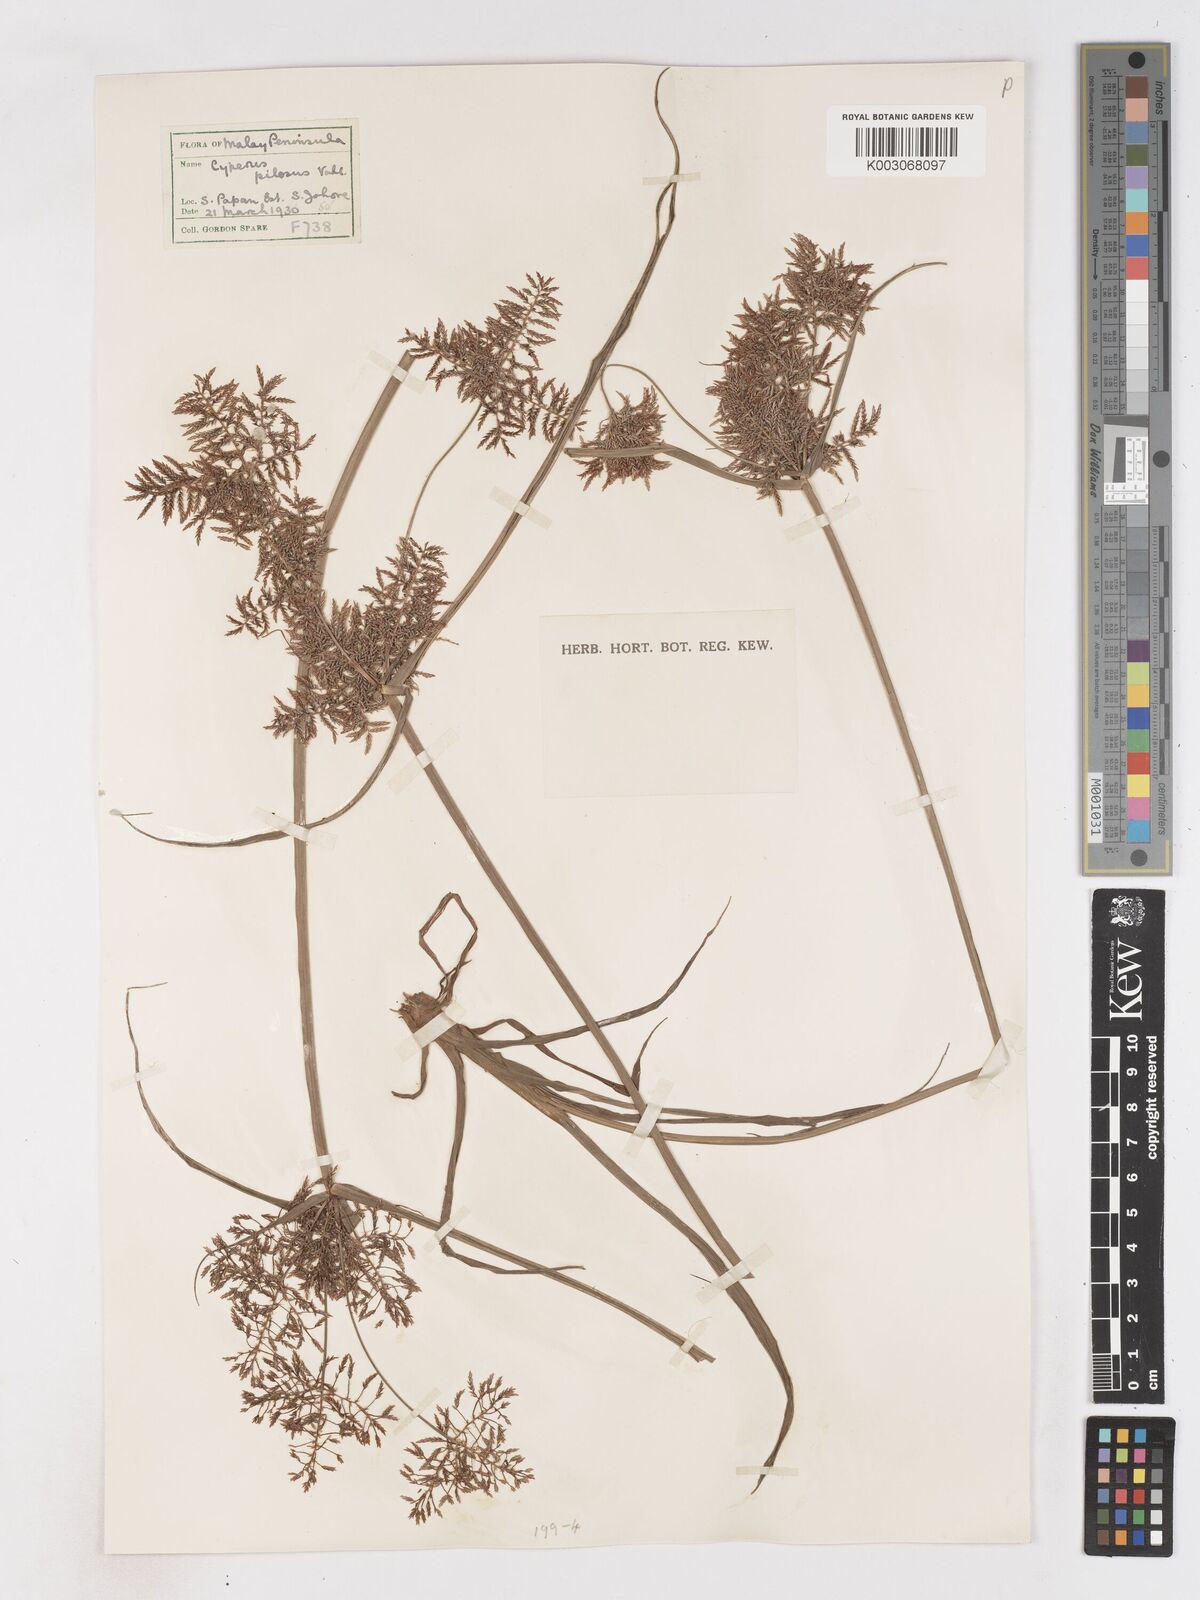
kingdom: Plantae
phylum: Tracheophyta
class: Liliopsida
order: Poales
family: Cyperaceae
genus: Cyperus
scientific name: Cyperus pilosus
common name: Fuzzy flatsedge
